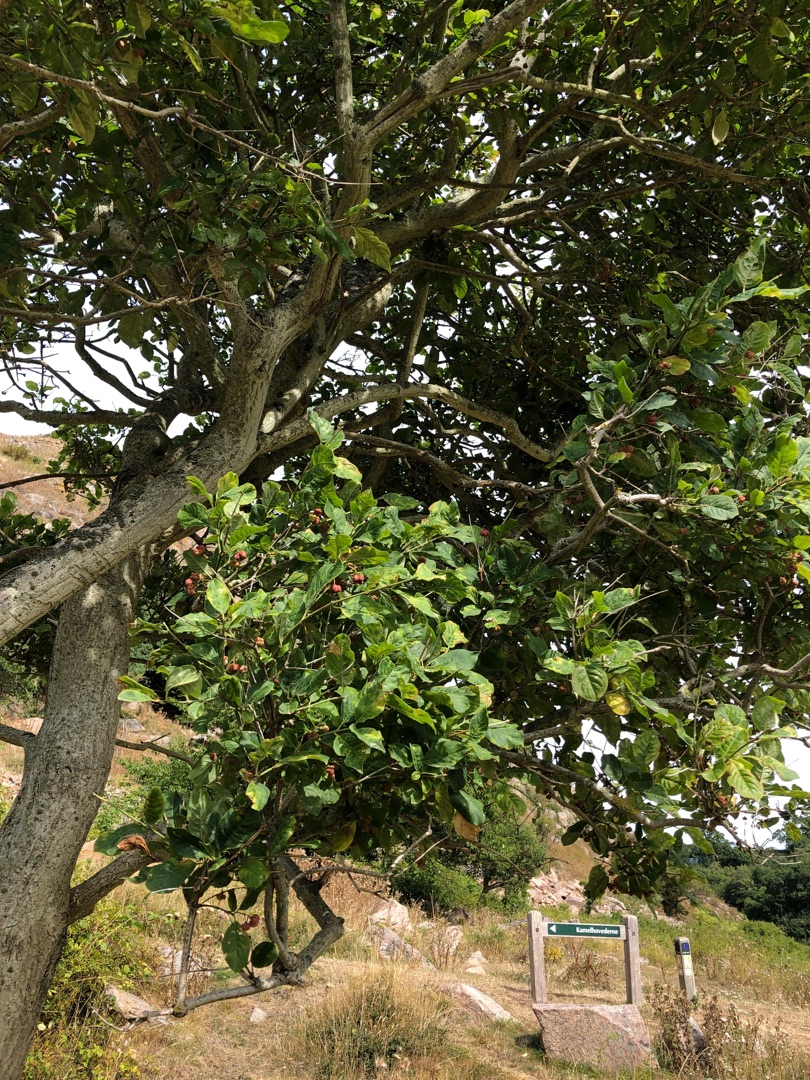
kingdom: Plantae
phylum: Tracheophyta
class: Magnoliopsida
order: Celastrales
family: Celastraceae
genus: Euonymus
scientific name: Euonymus europaeus
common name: Benved
